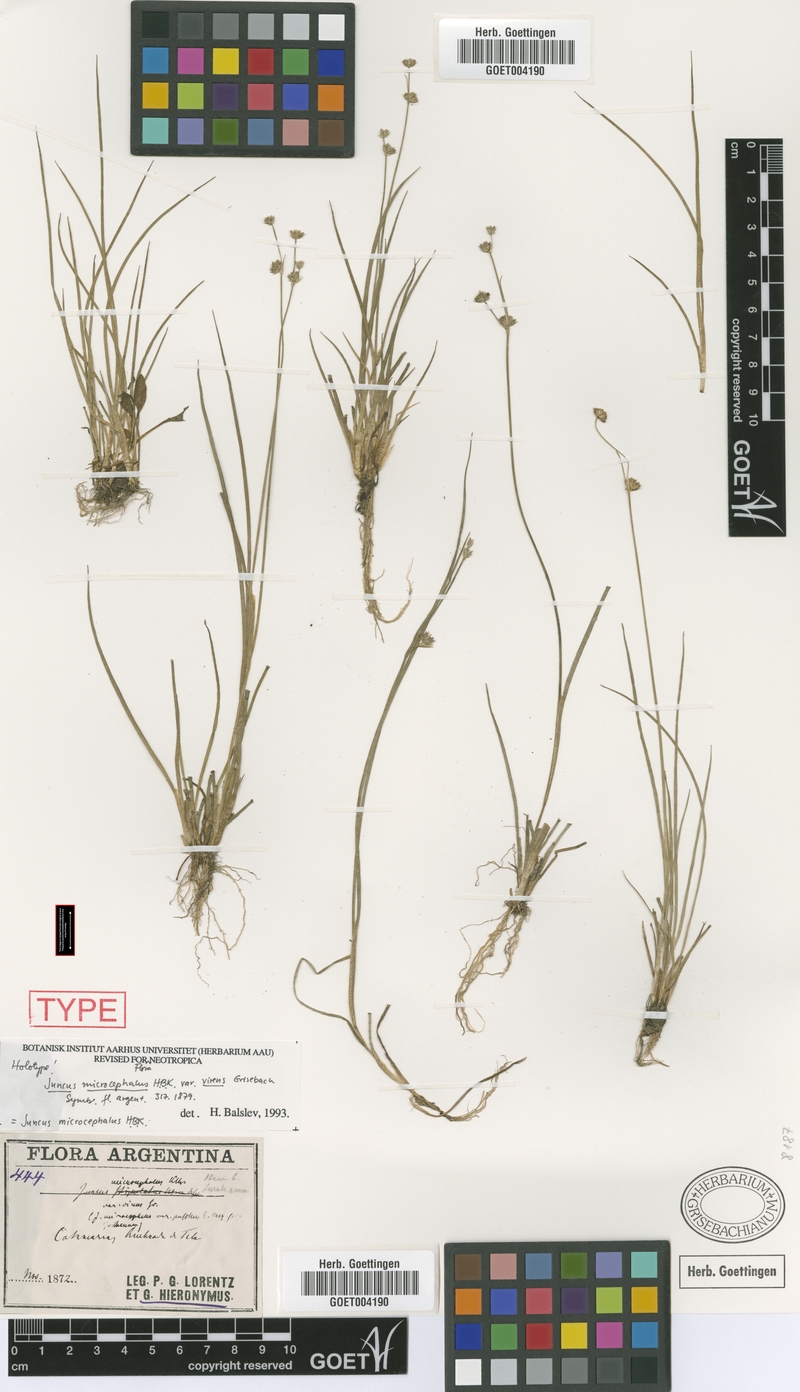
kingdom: Plantae
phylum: Tracheophyta
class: Liliopsida
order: Poales
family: Juncaceae
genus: Juncus
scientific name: Juncus microcephalus
